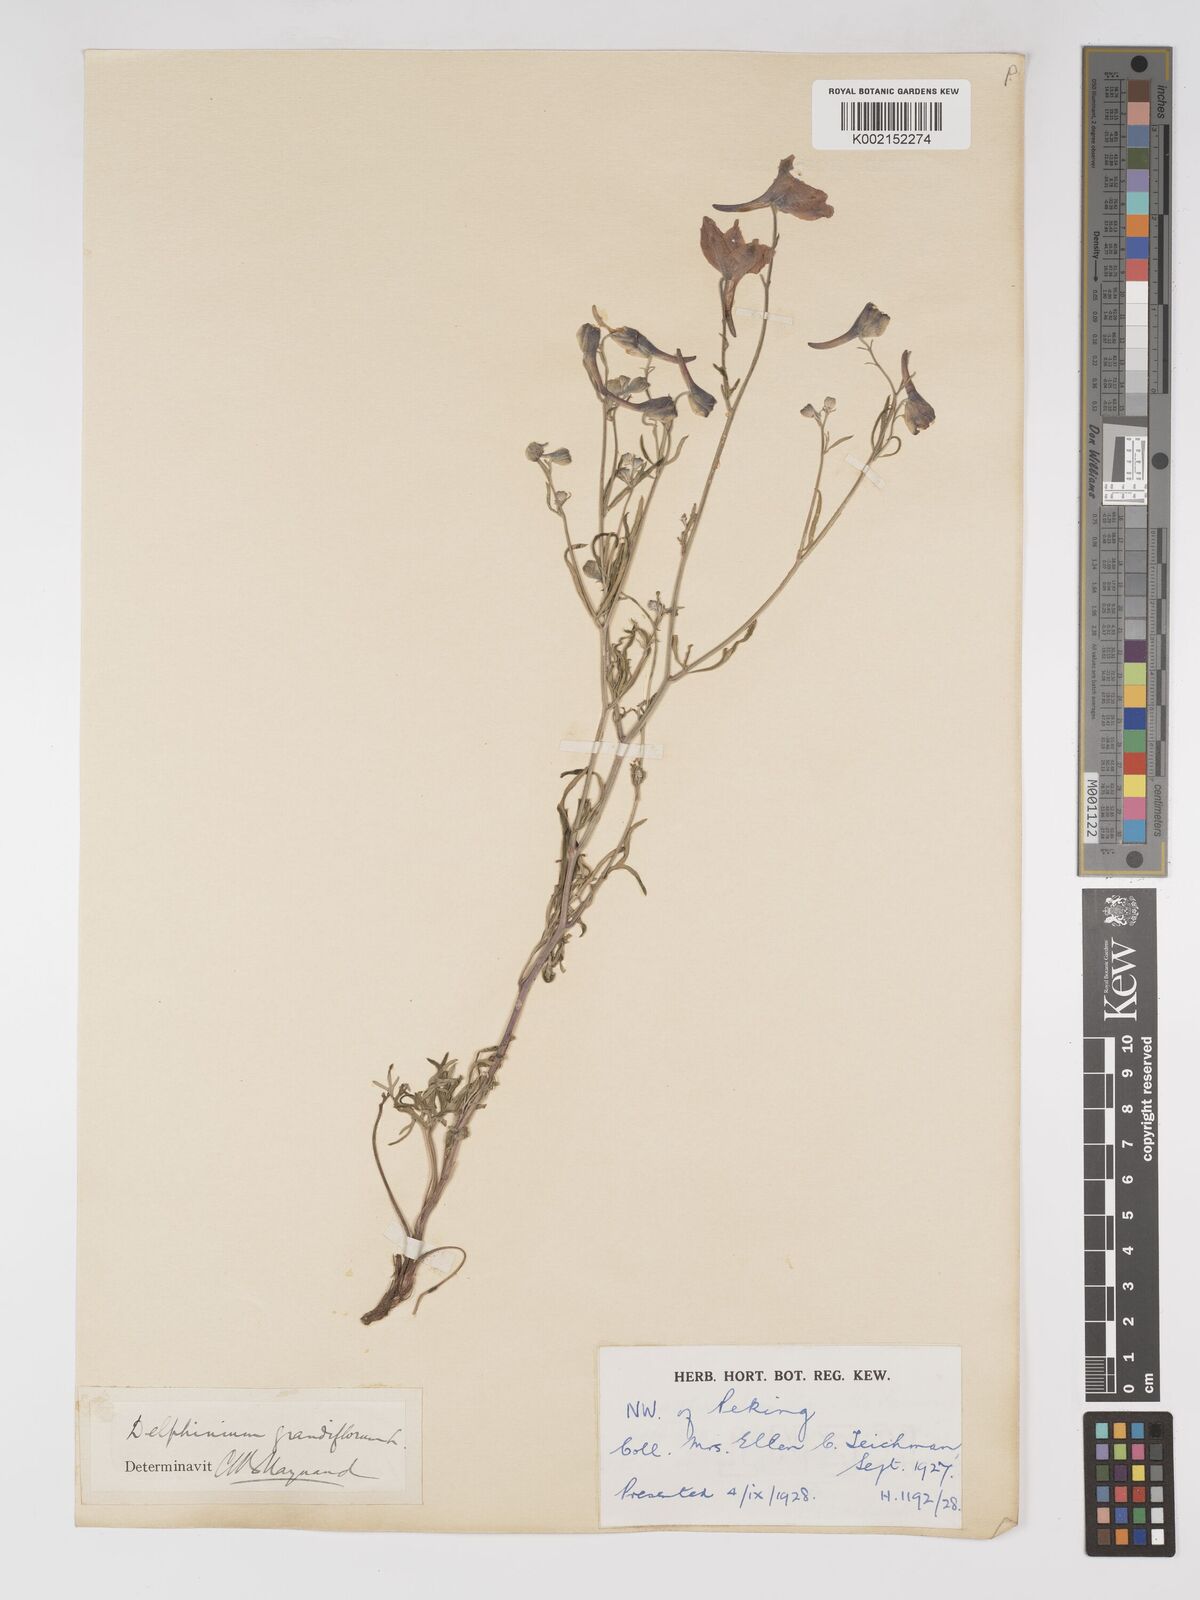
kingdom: Plantae
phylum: Tracheophyta
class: Magnoliopsida
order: Ranunculales
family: Ranunculaceae
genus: Delphinium
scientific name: Delphinium grandiflorum
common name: Siberian larkspur
